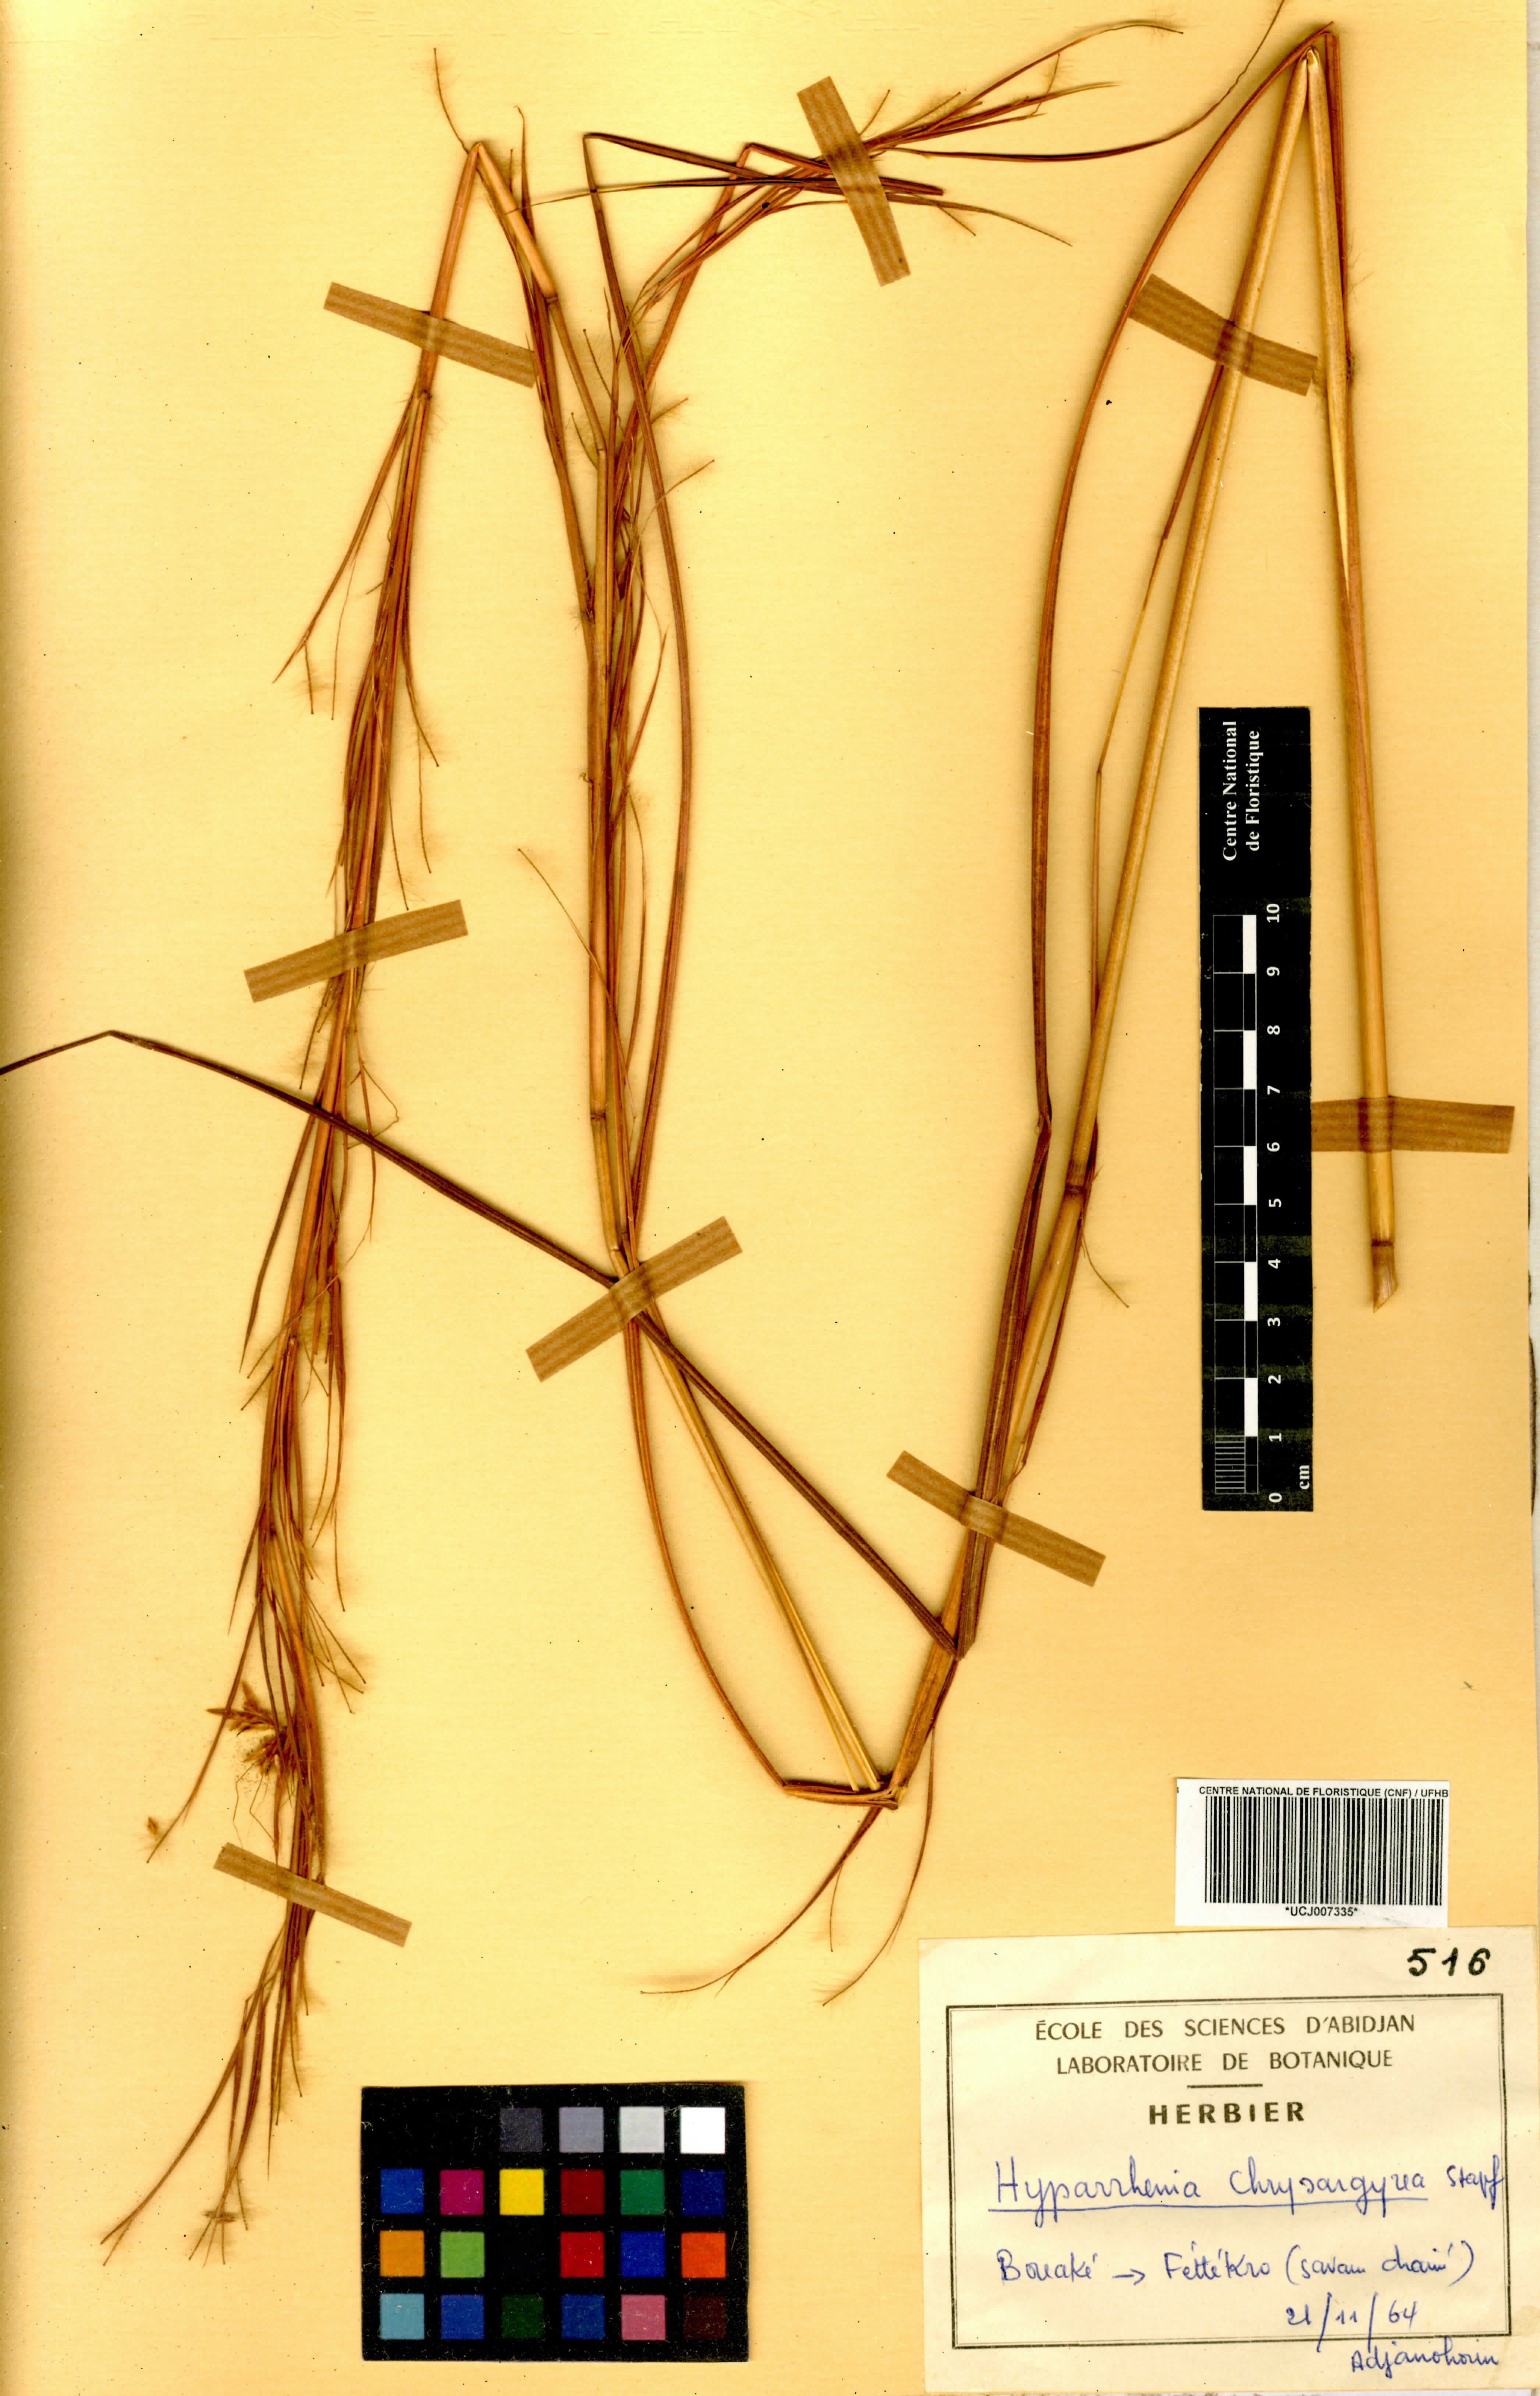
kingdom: Plantae
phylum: Tracheophyta
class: Liliopsida
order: Poales
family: Poaceae
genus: Hyparrhenia
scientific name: Hyparrhenia nyassae
